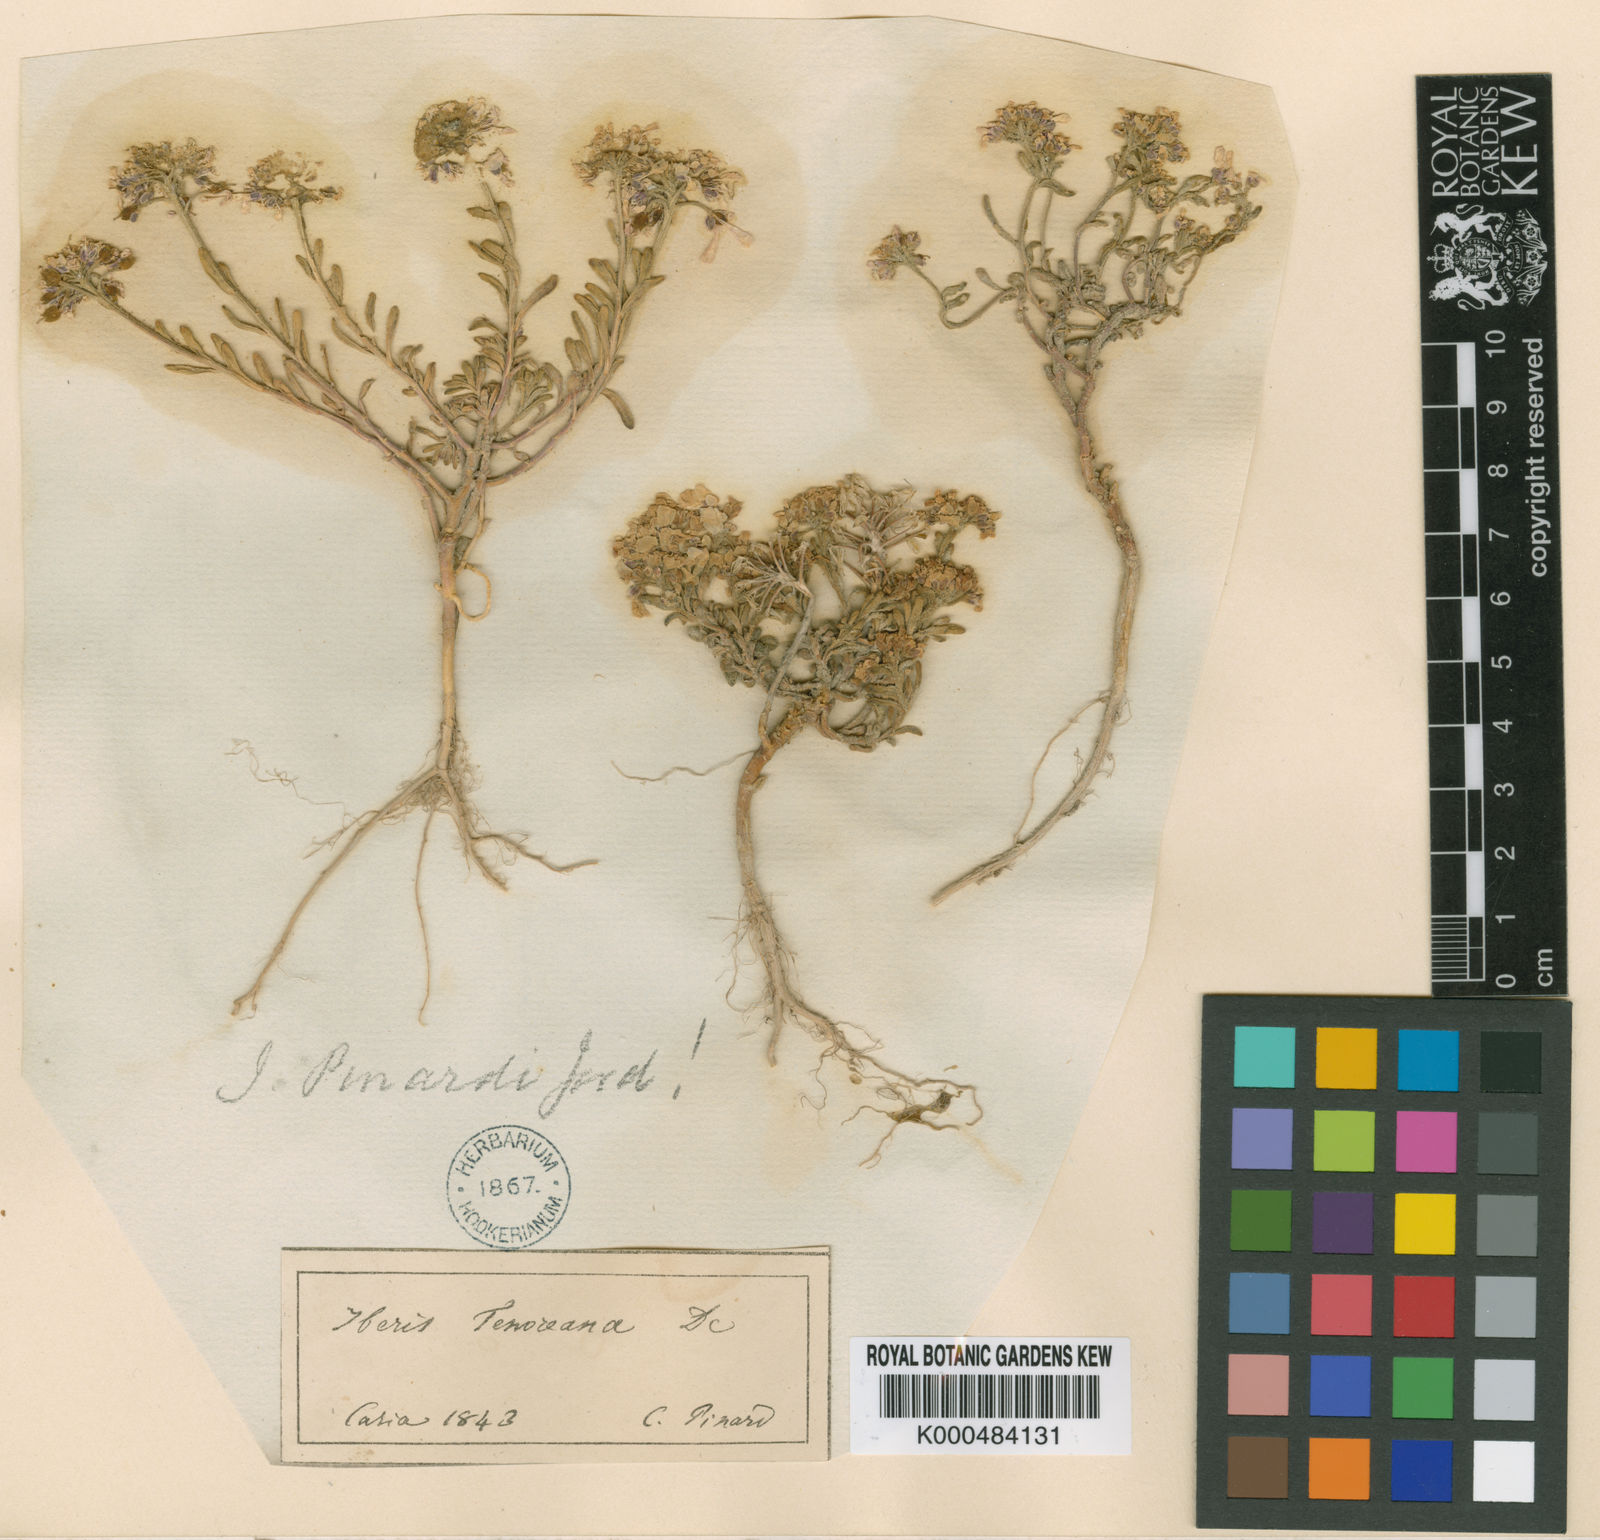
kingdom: Plantae
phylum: Tracheophyta
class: Magnoliopsida
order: Brassicales
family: Brassicaceae
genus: Iberis
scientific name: Iberis simplex
